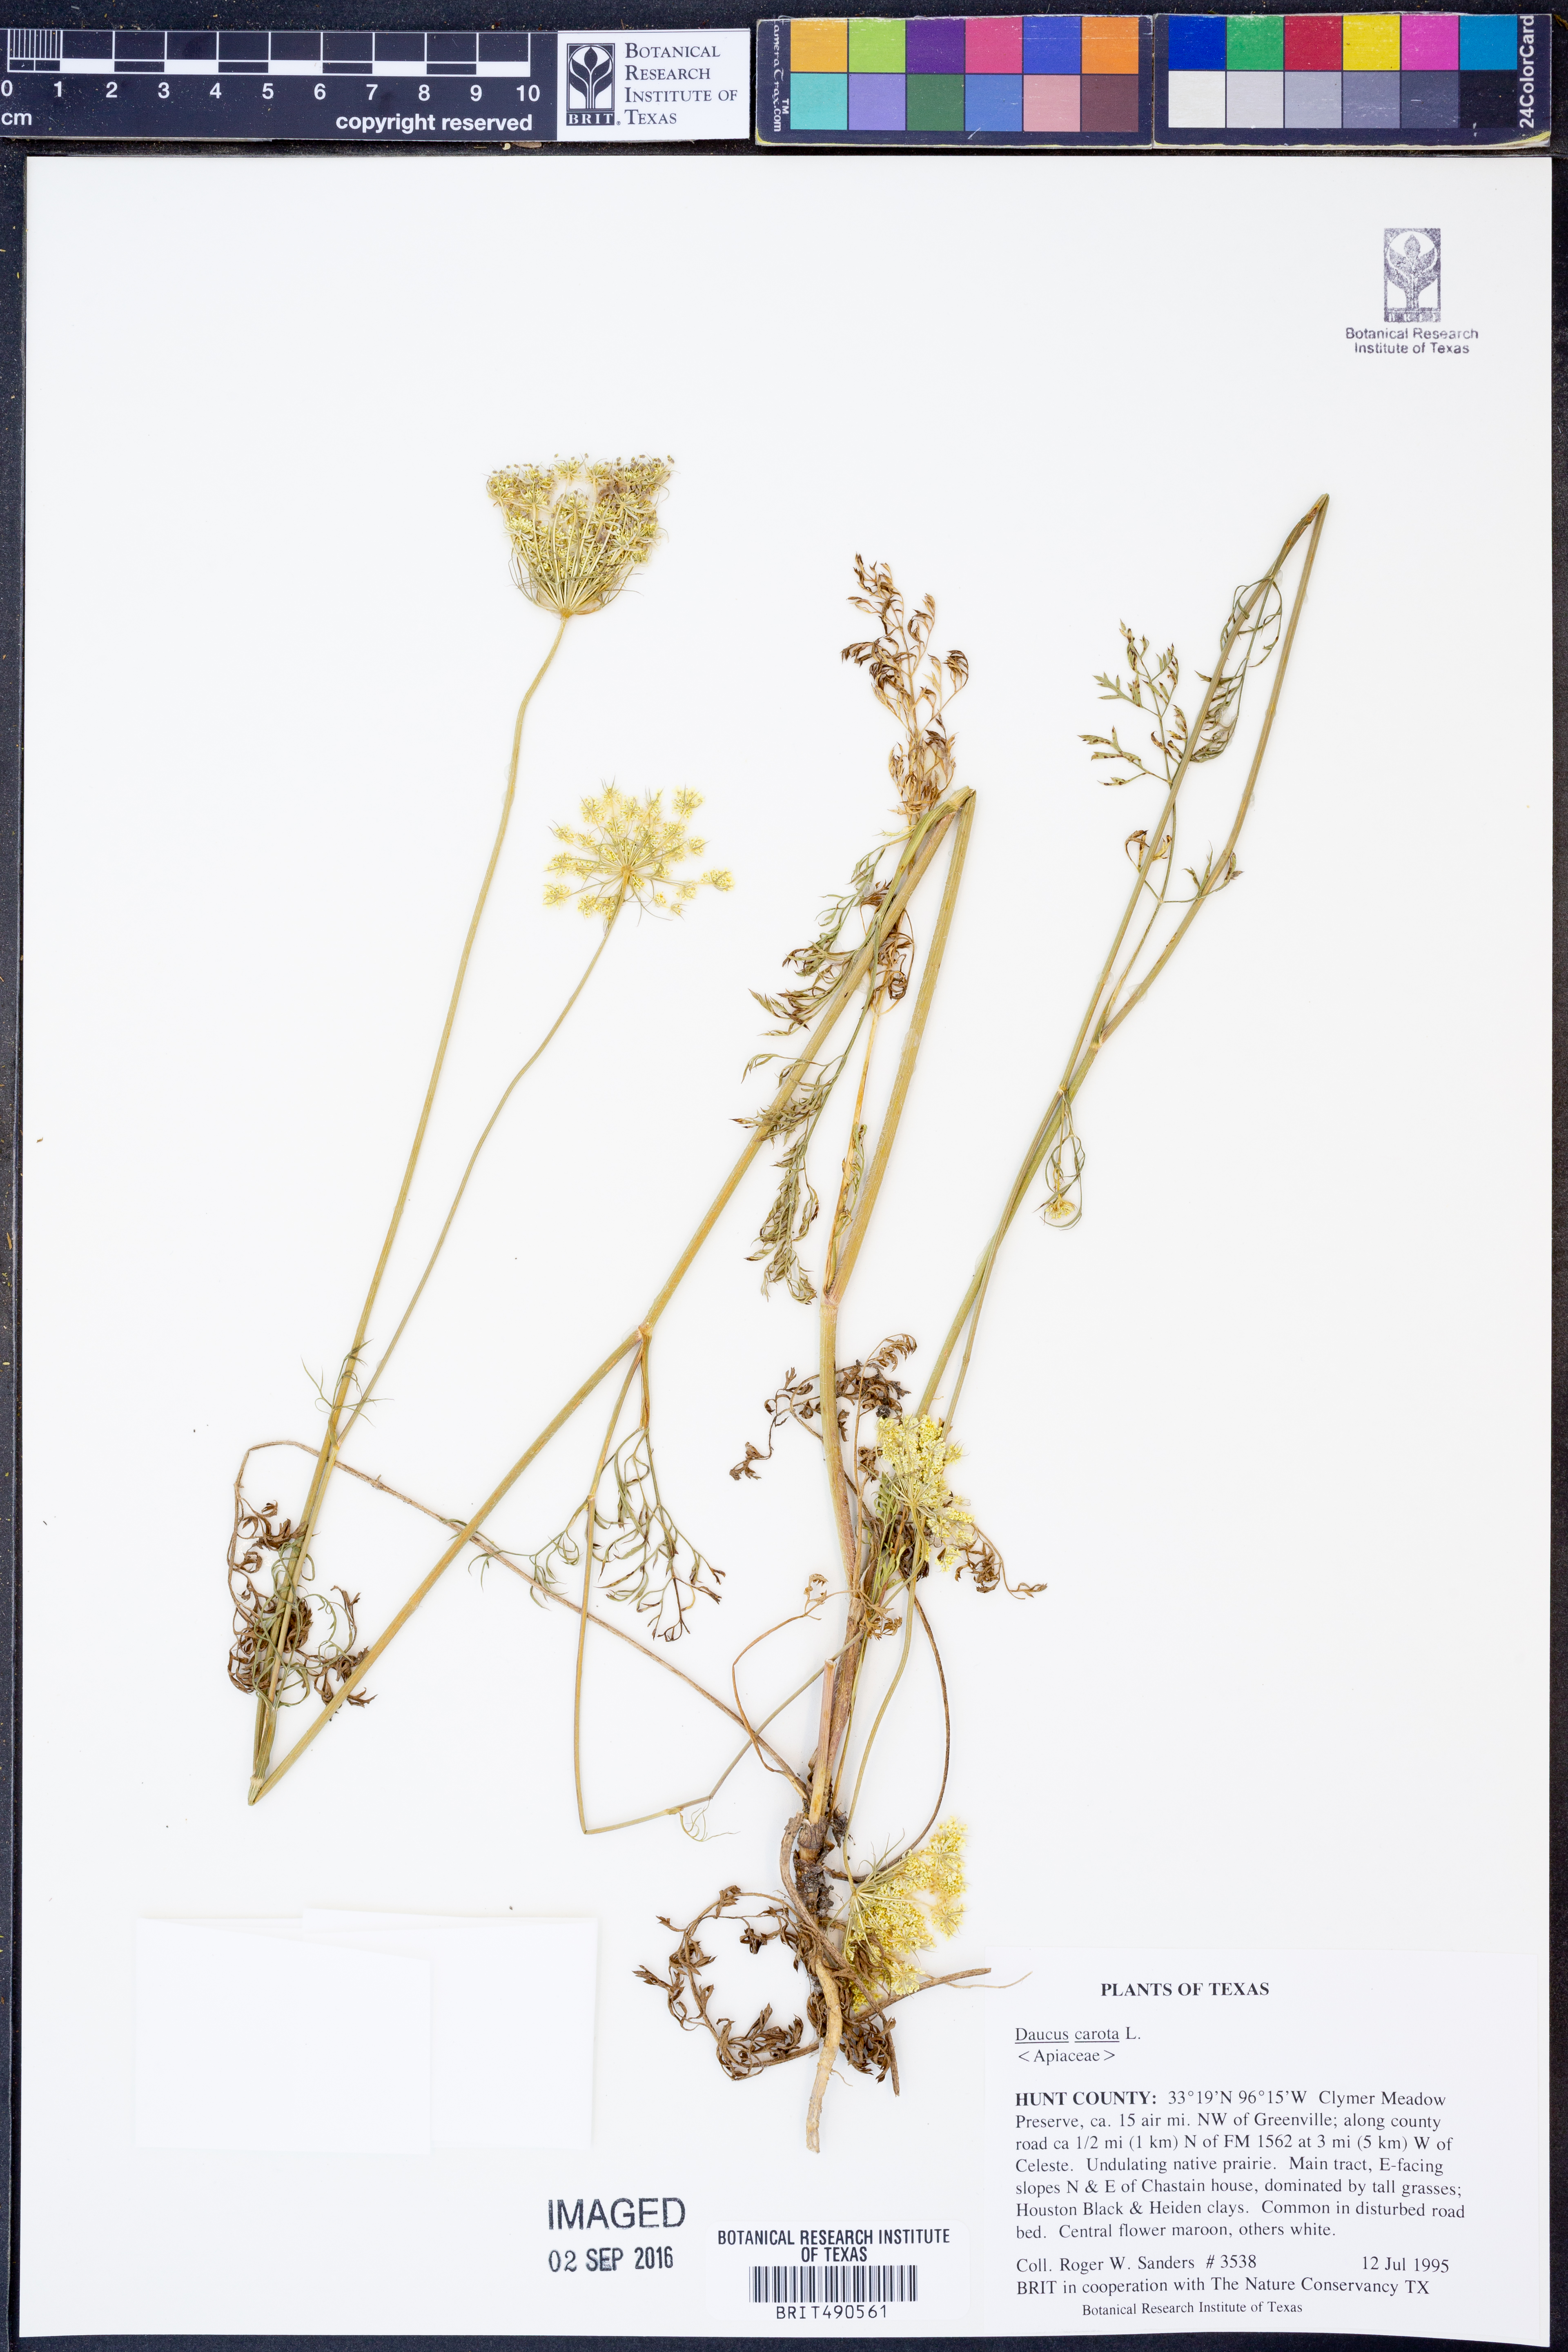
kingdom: Plantae
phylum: Tracheophyta
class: Magnoliopsida
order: Apiales
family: Apiaceae
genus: Daucus
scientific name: Daucus carota
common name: Wild carrot
